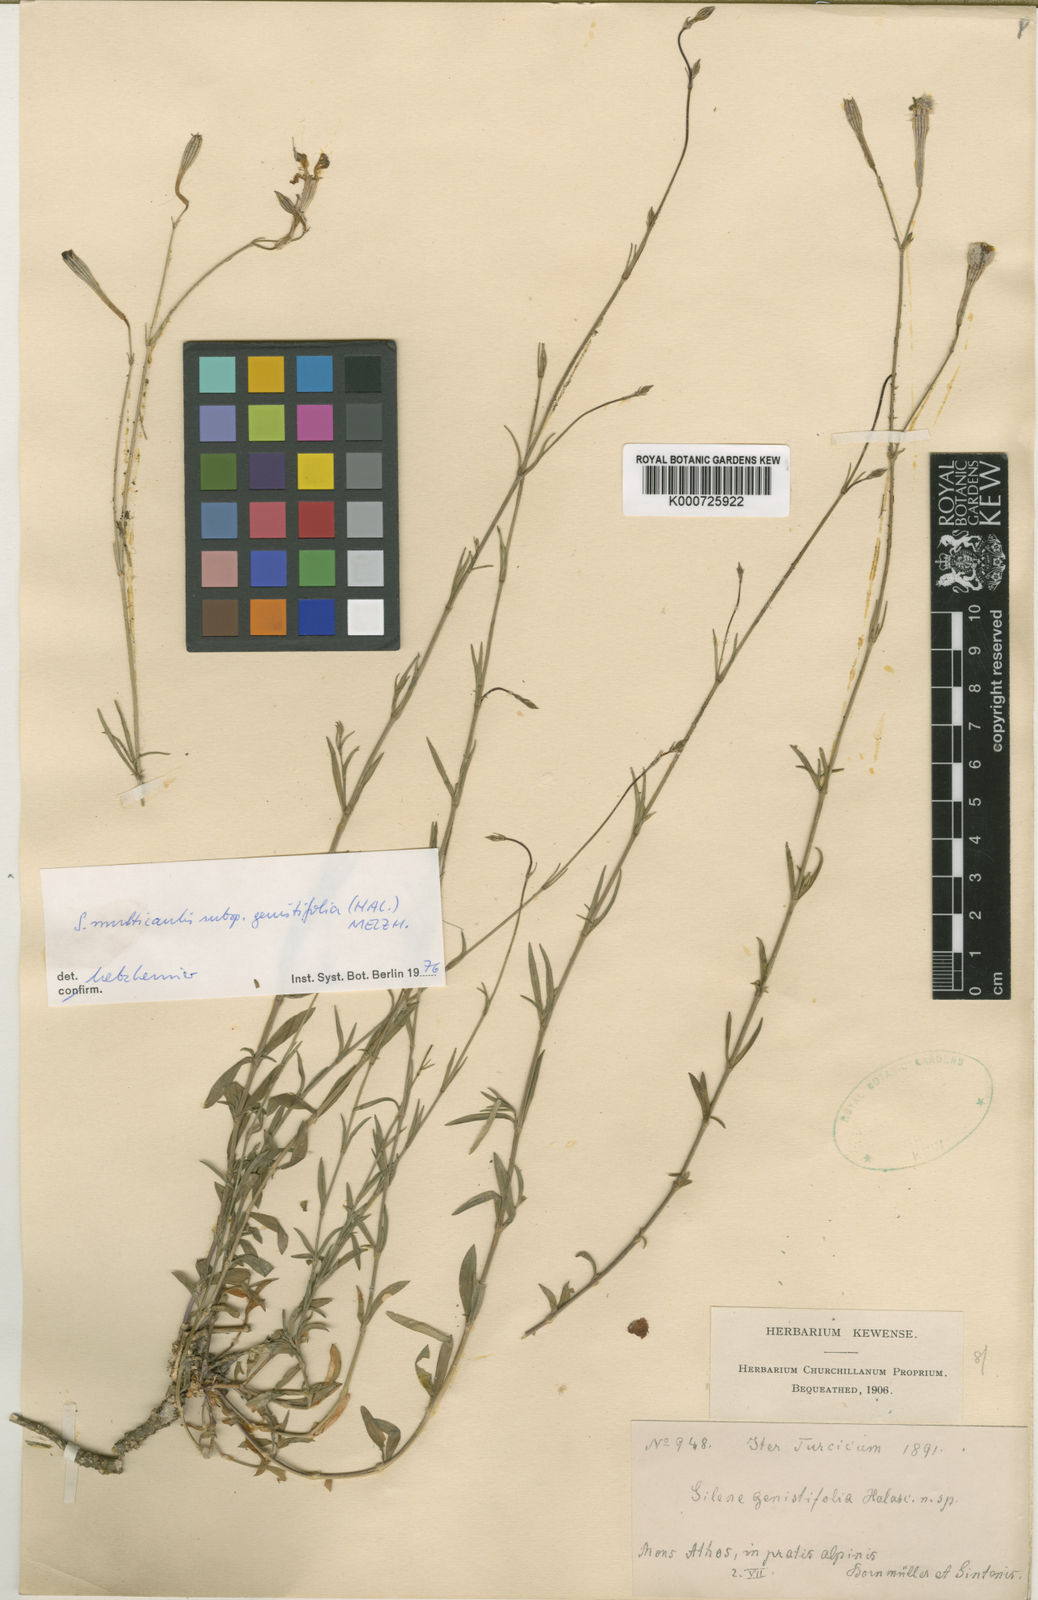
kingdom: Plantae
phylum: Tracheophyta
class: Magnoliopsida
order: Caryophyllales
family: Caryophyllaceae
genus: Silene
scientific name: Silene
